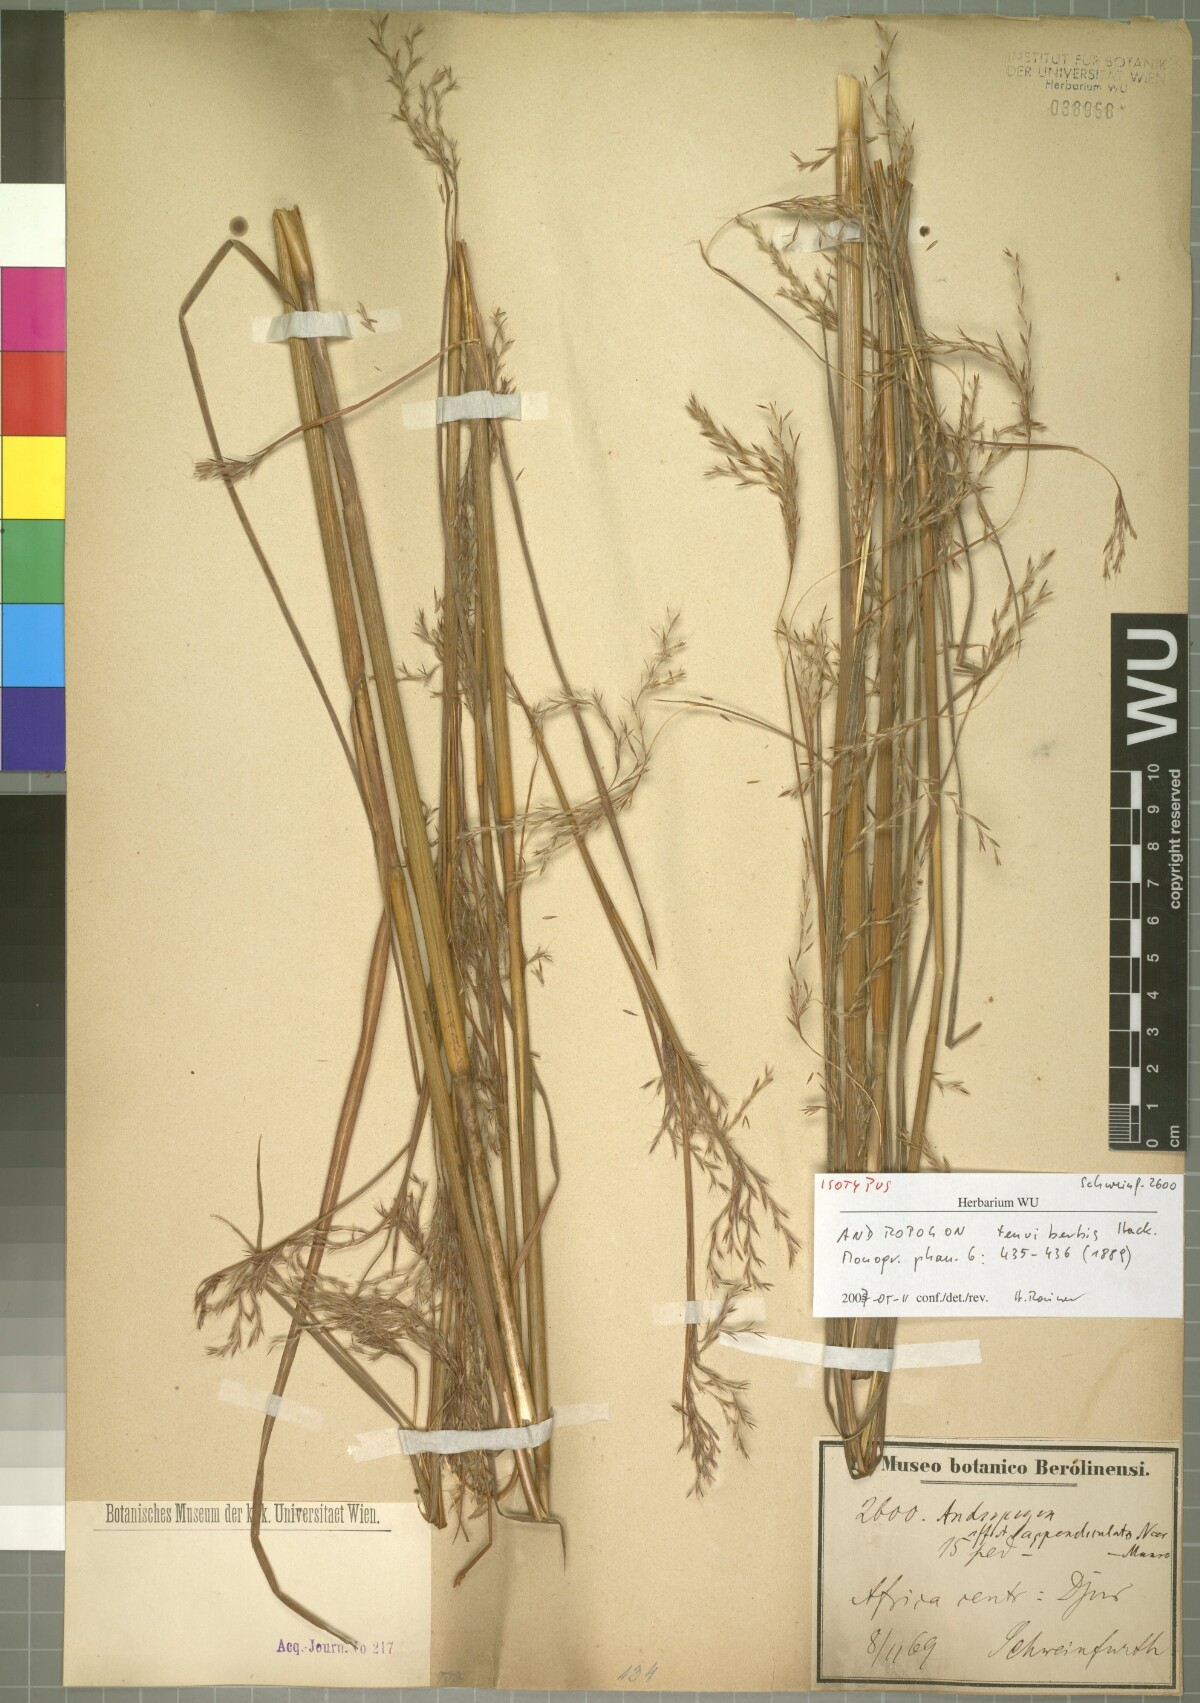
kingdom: Plantae
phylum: Tracheophyta
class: Liliopsida
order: Poales
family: Poaceae
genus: Andropogon
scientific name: Andropogon tenuiberbis
